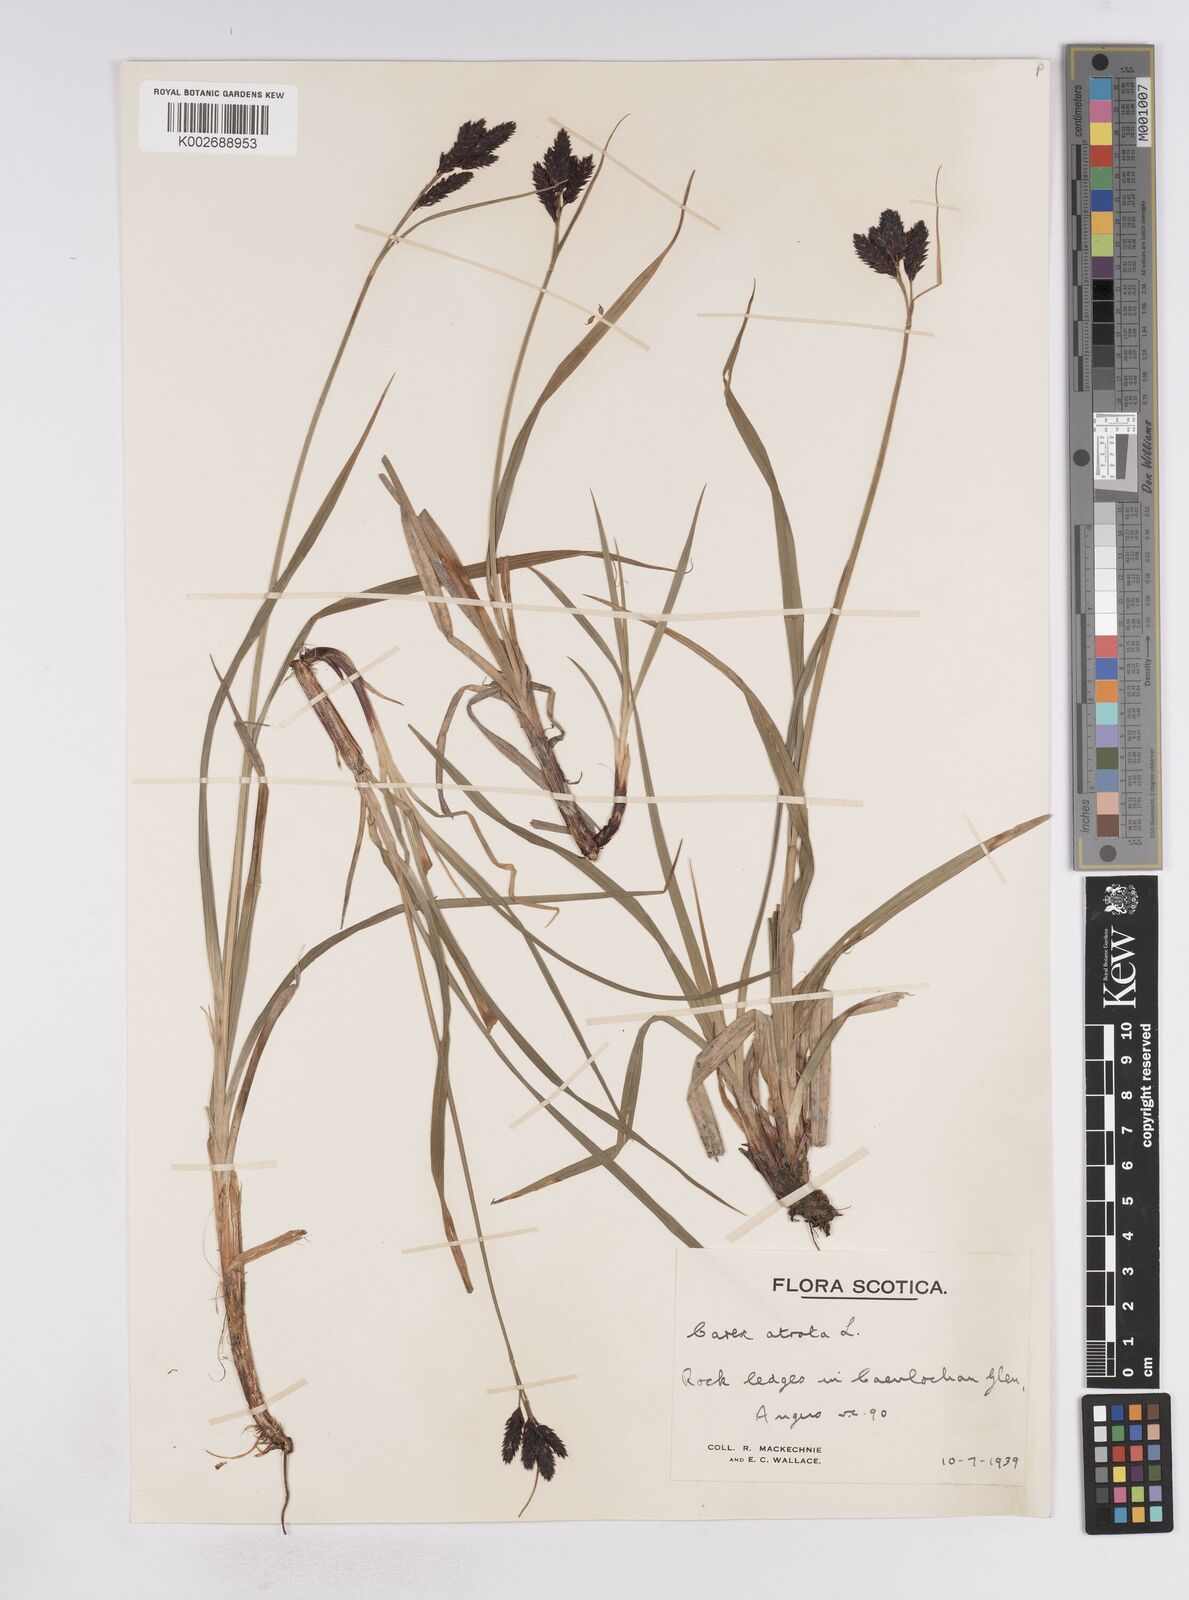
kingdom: Plantae
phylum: Tracheophyta
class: Liliopsida
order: Poales
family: Cyperaceae
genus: Carex
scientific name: Carex atrata
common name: Black alpine sedge
